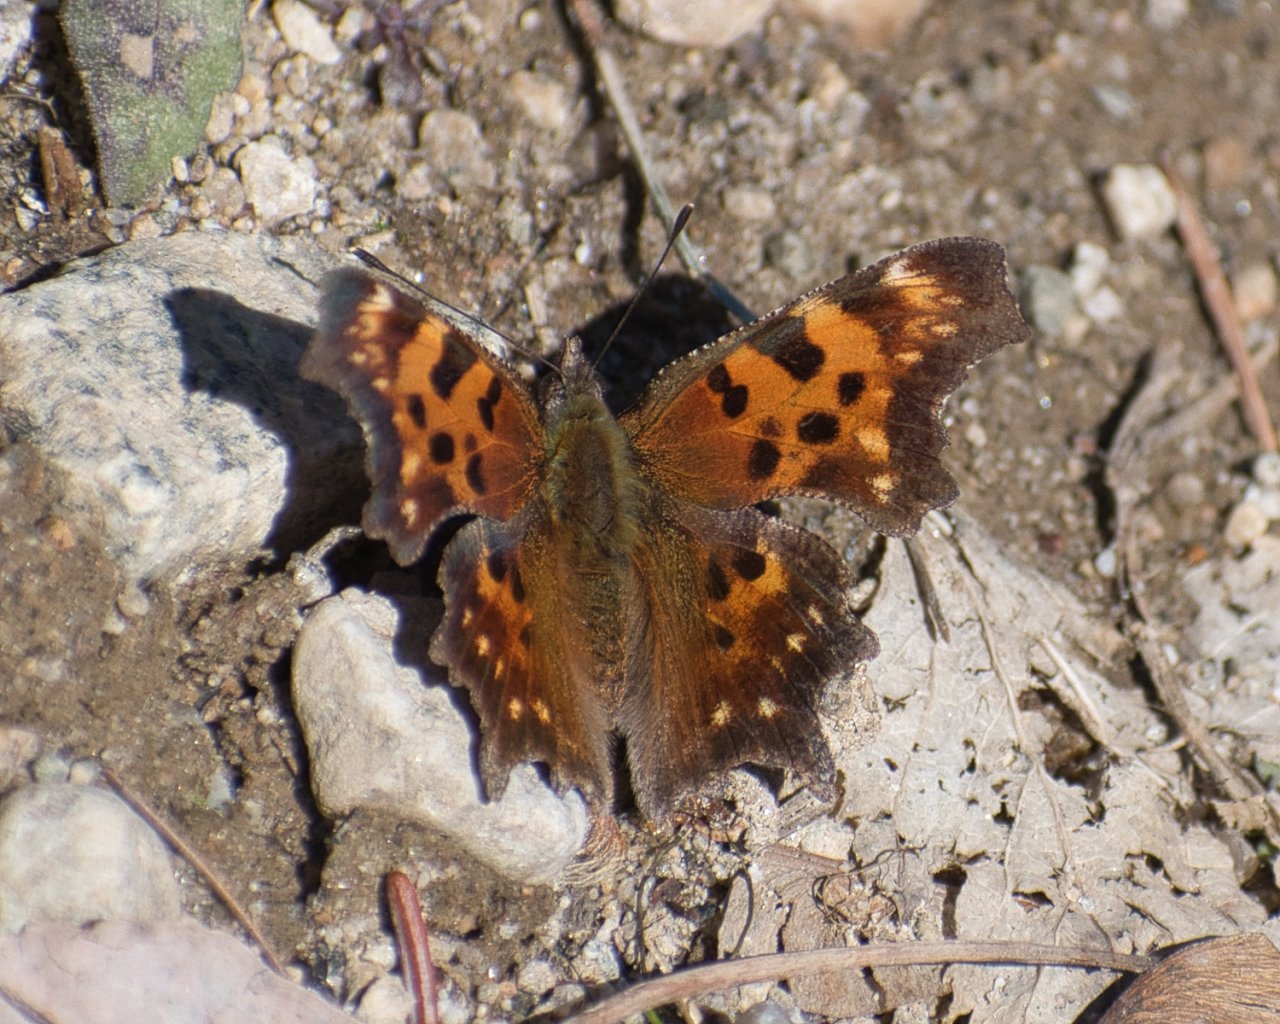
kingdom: Animalia
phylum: Arthropoda
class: Insecta
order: Lepidoptera
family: Nymphalidae
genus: Polygonia
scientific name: Polygonia faunus
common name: Green Comma
